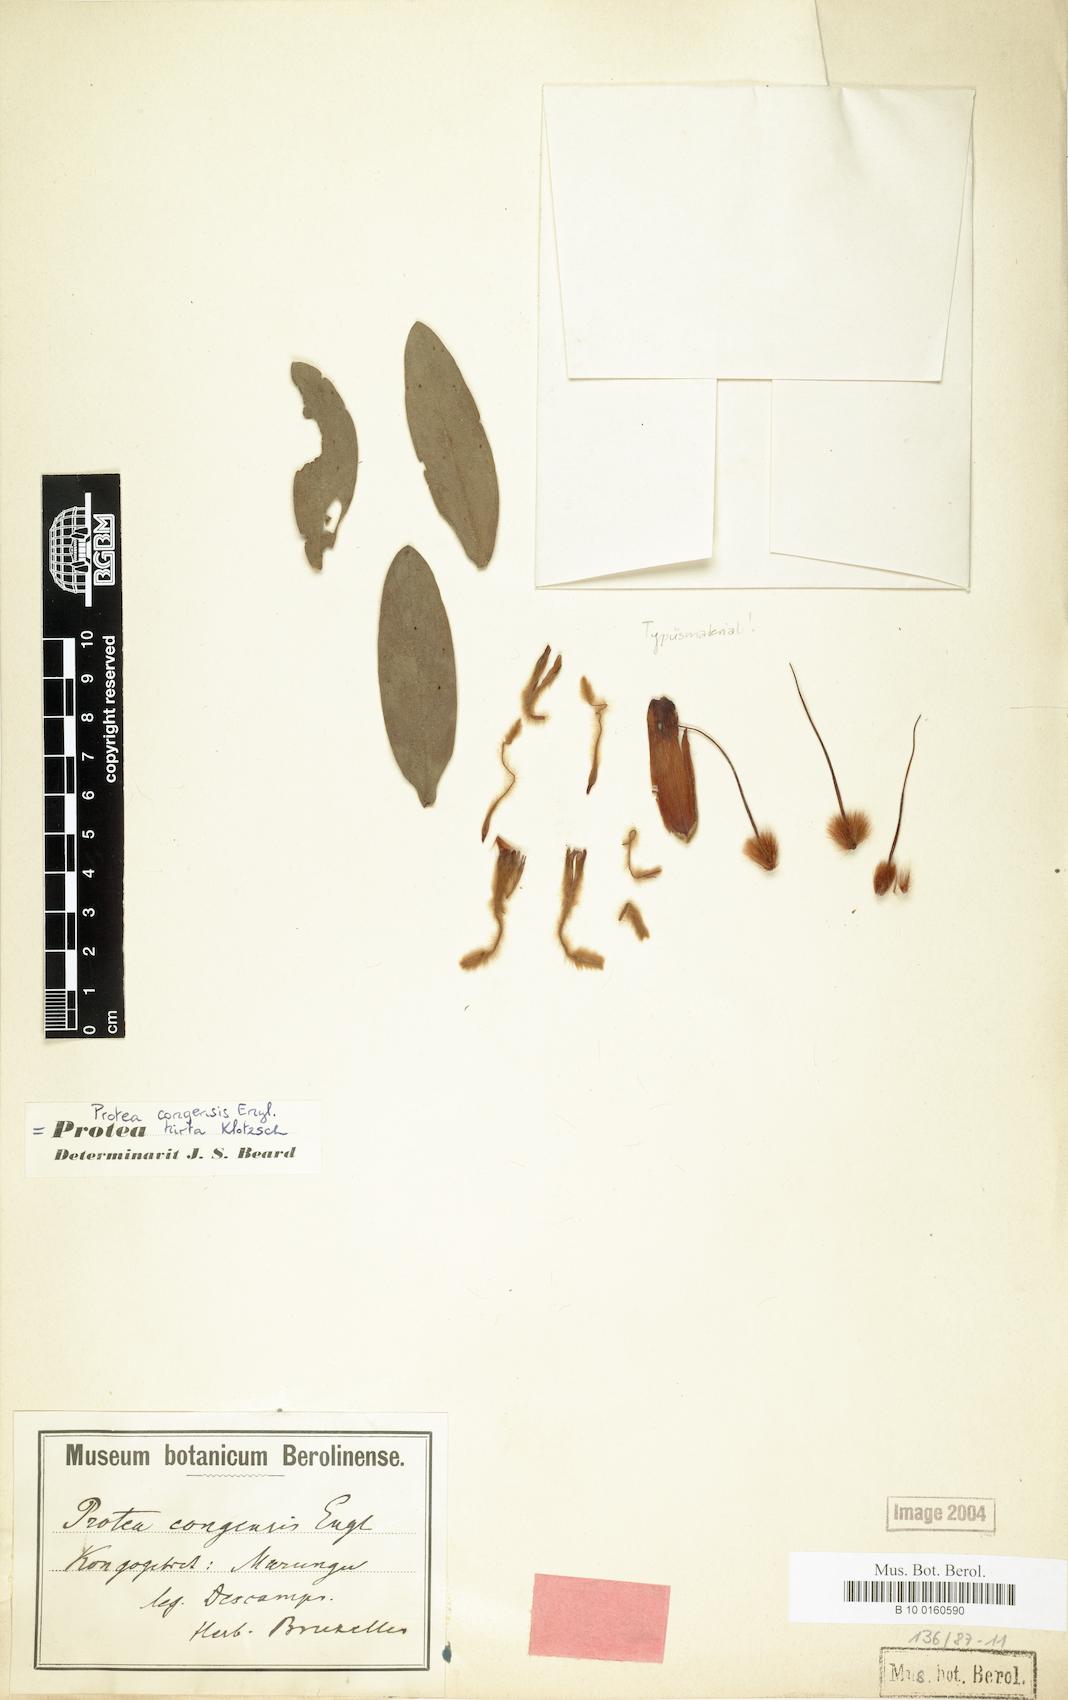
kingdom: Plantae
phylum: Tracheophyta
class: Magnoliopsida
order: Proteales
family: Proteaceae
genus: Protea
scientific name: Protea welwitschii
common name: Cluster-head protea
